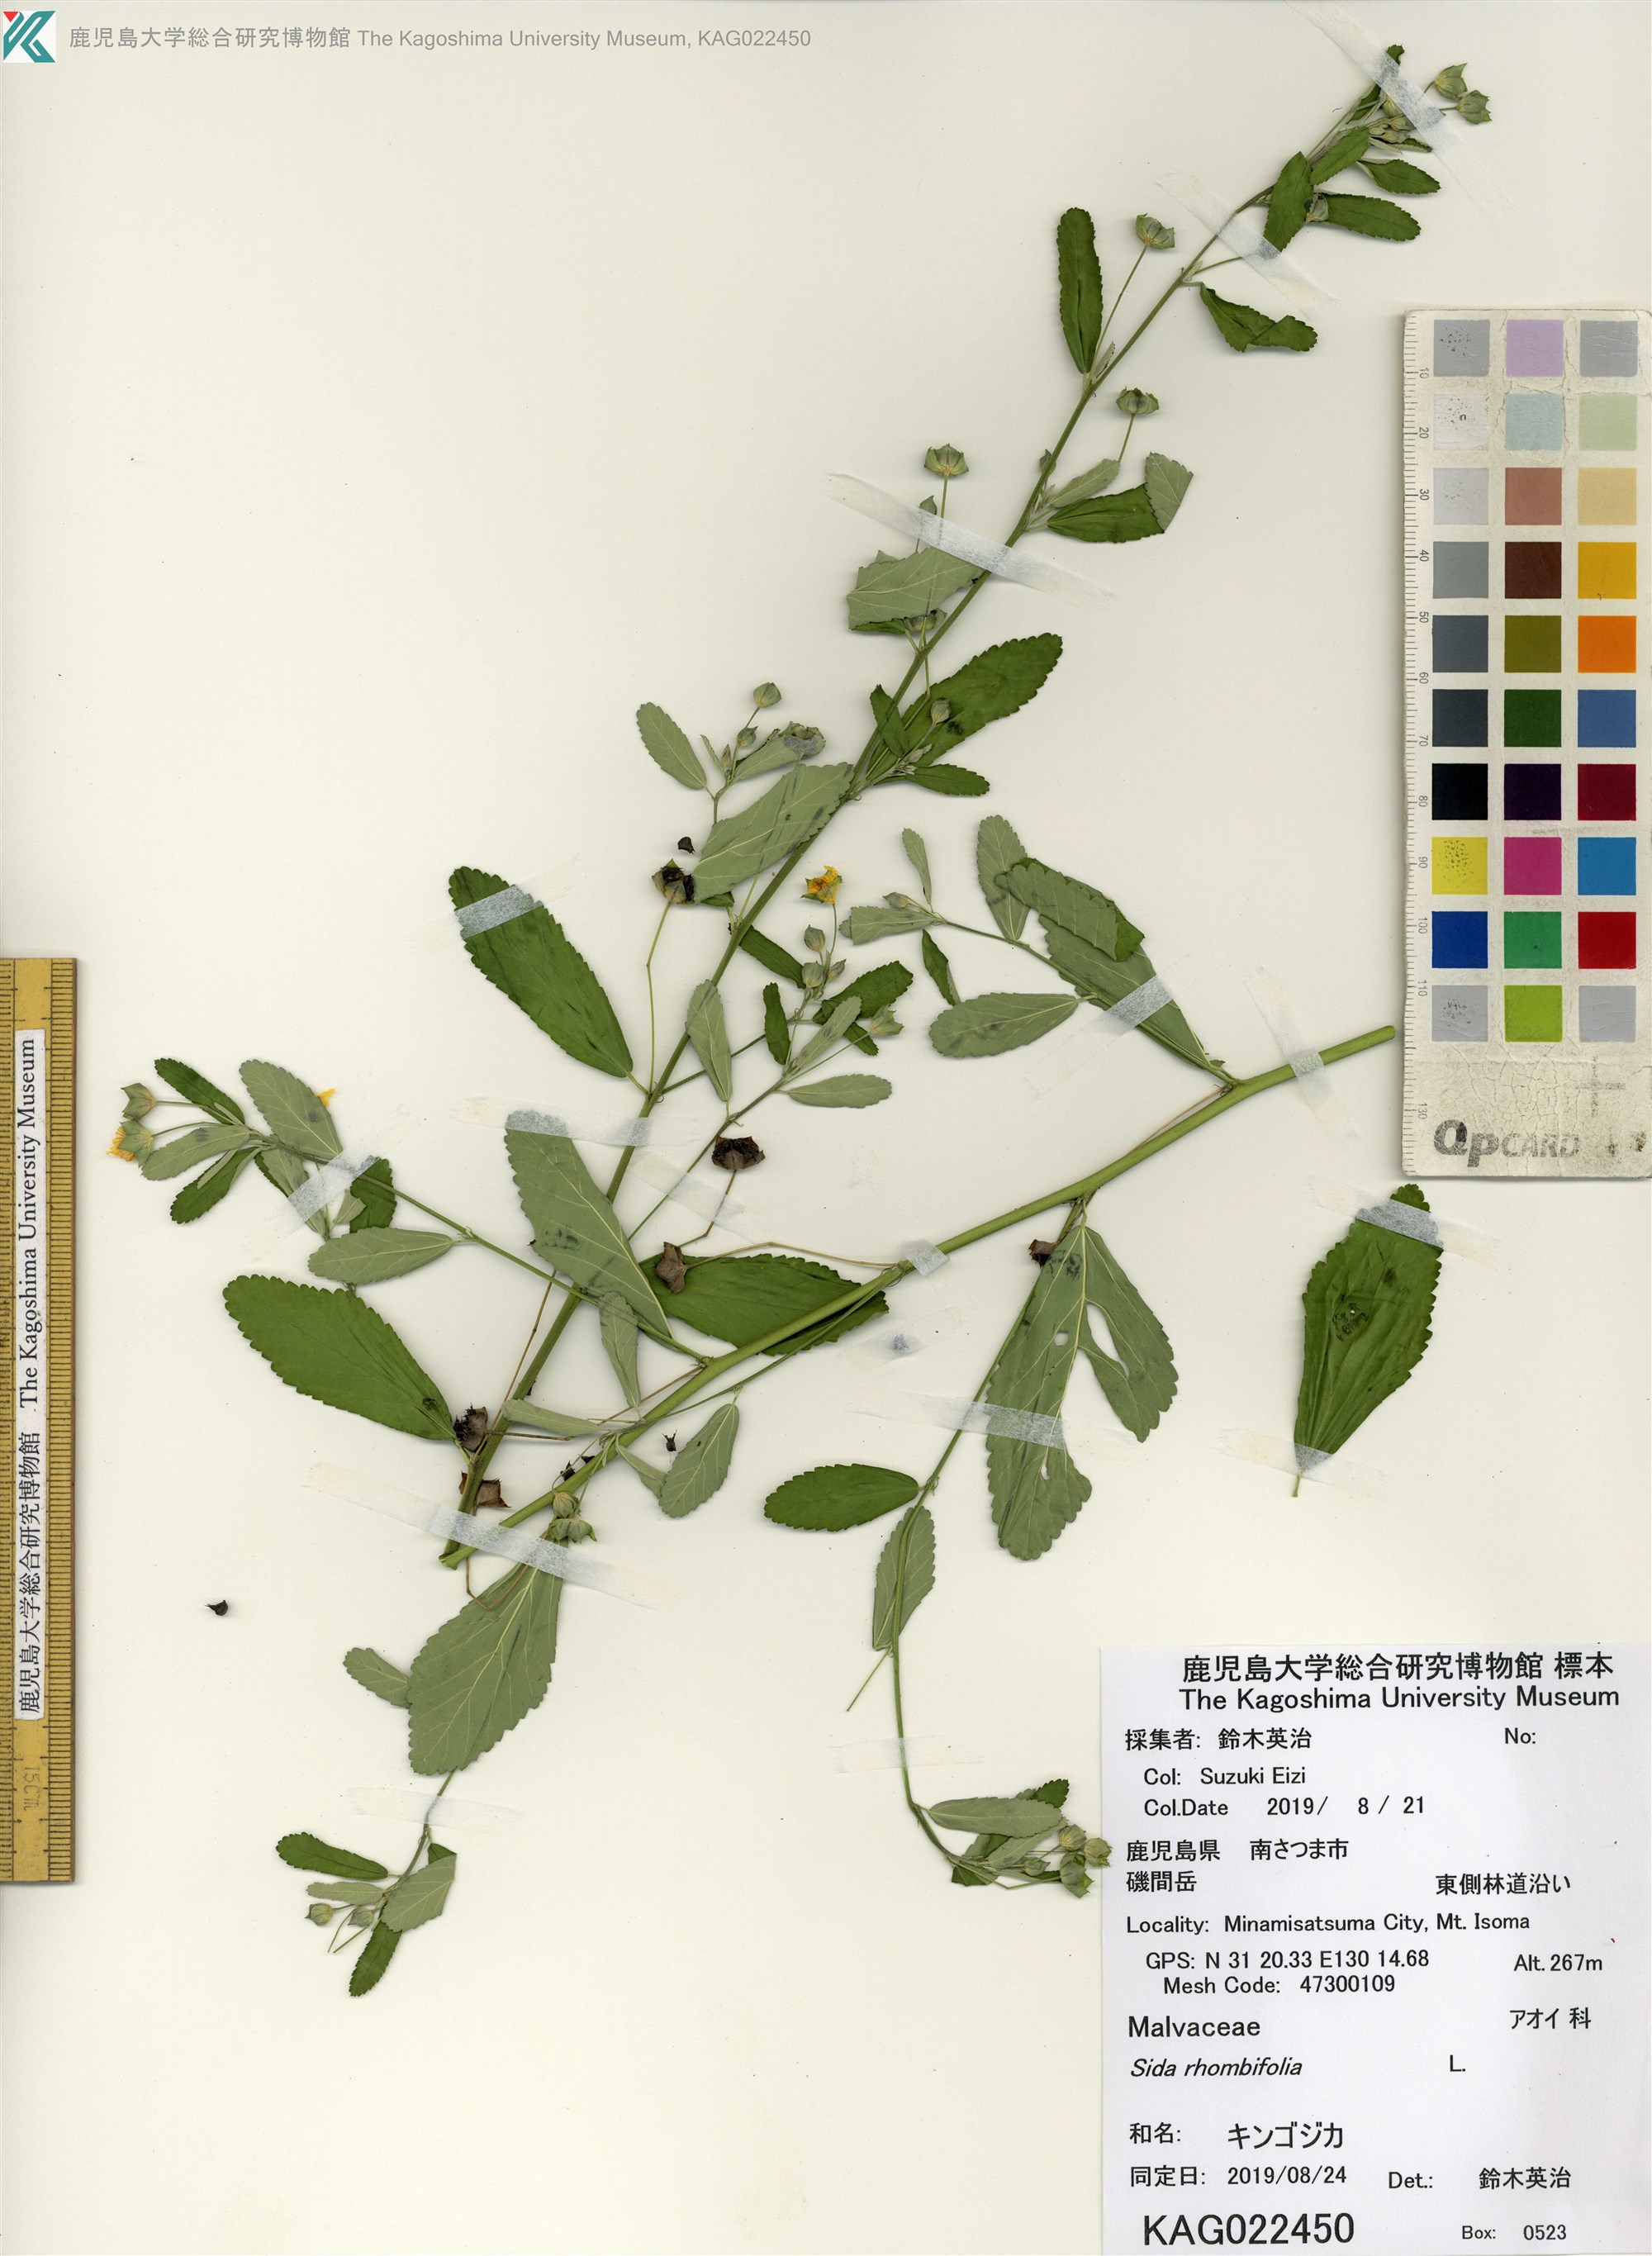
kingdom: Plantae
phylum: Tracheophyta
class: Magnoliopsida
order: Malvales
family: Malvaceae
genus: Sida
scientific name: Sida rhombifolia
